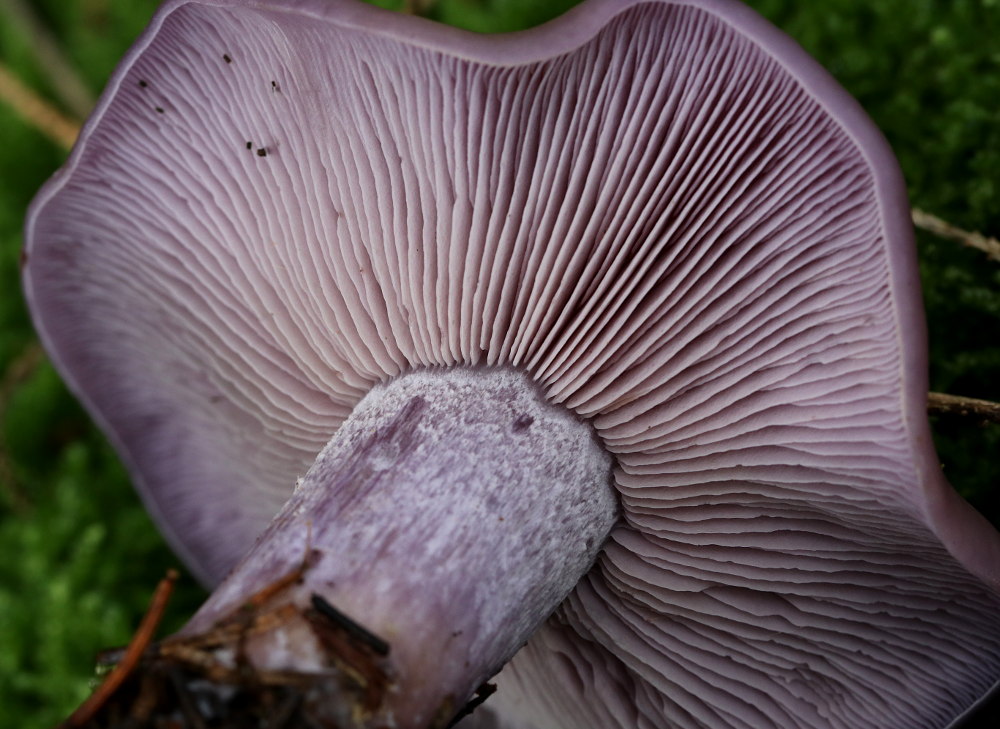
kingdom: Fungi
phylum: Basidiomycota
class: Agaricomycetes
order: Agaricales
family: Tricholomataceae
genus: Lepista
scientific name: Lepista nuda
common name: violet hekseringshat
